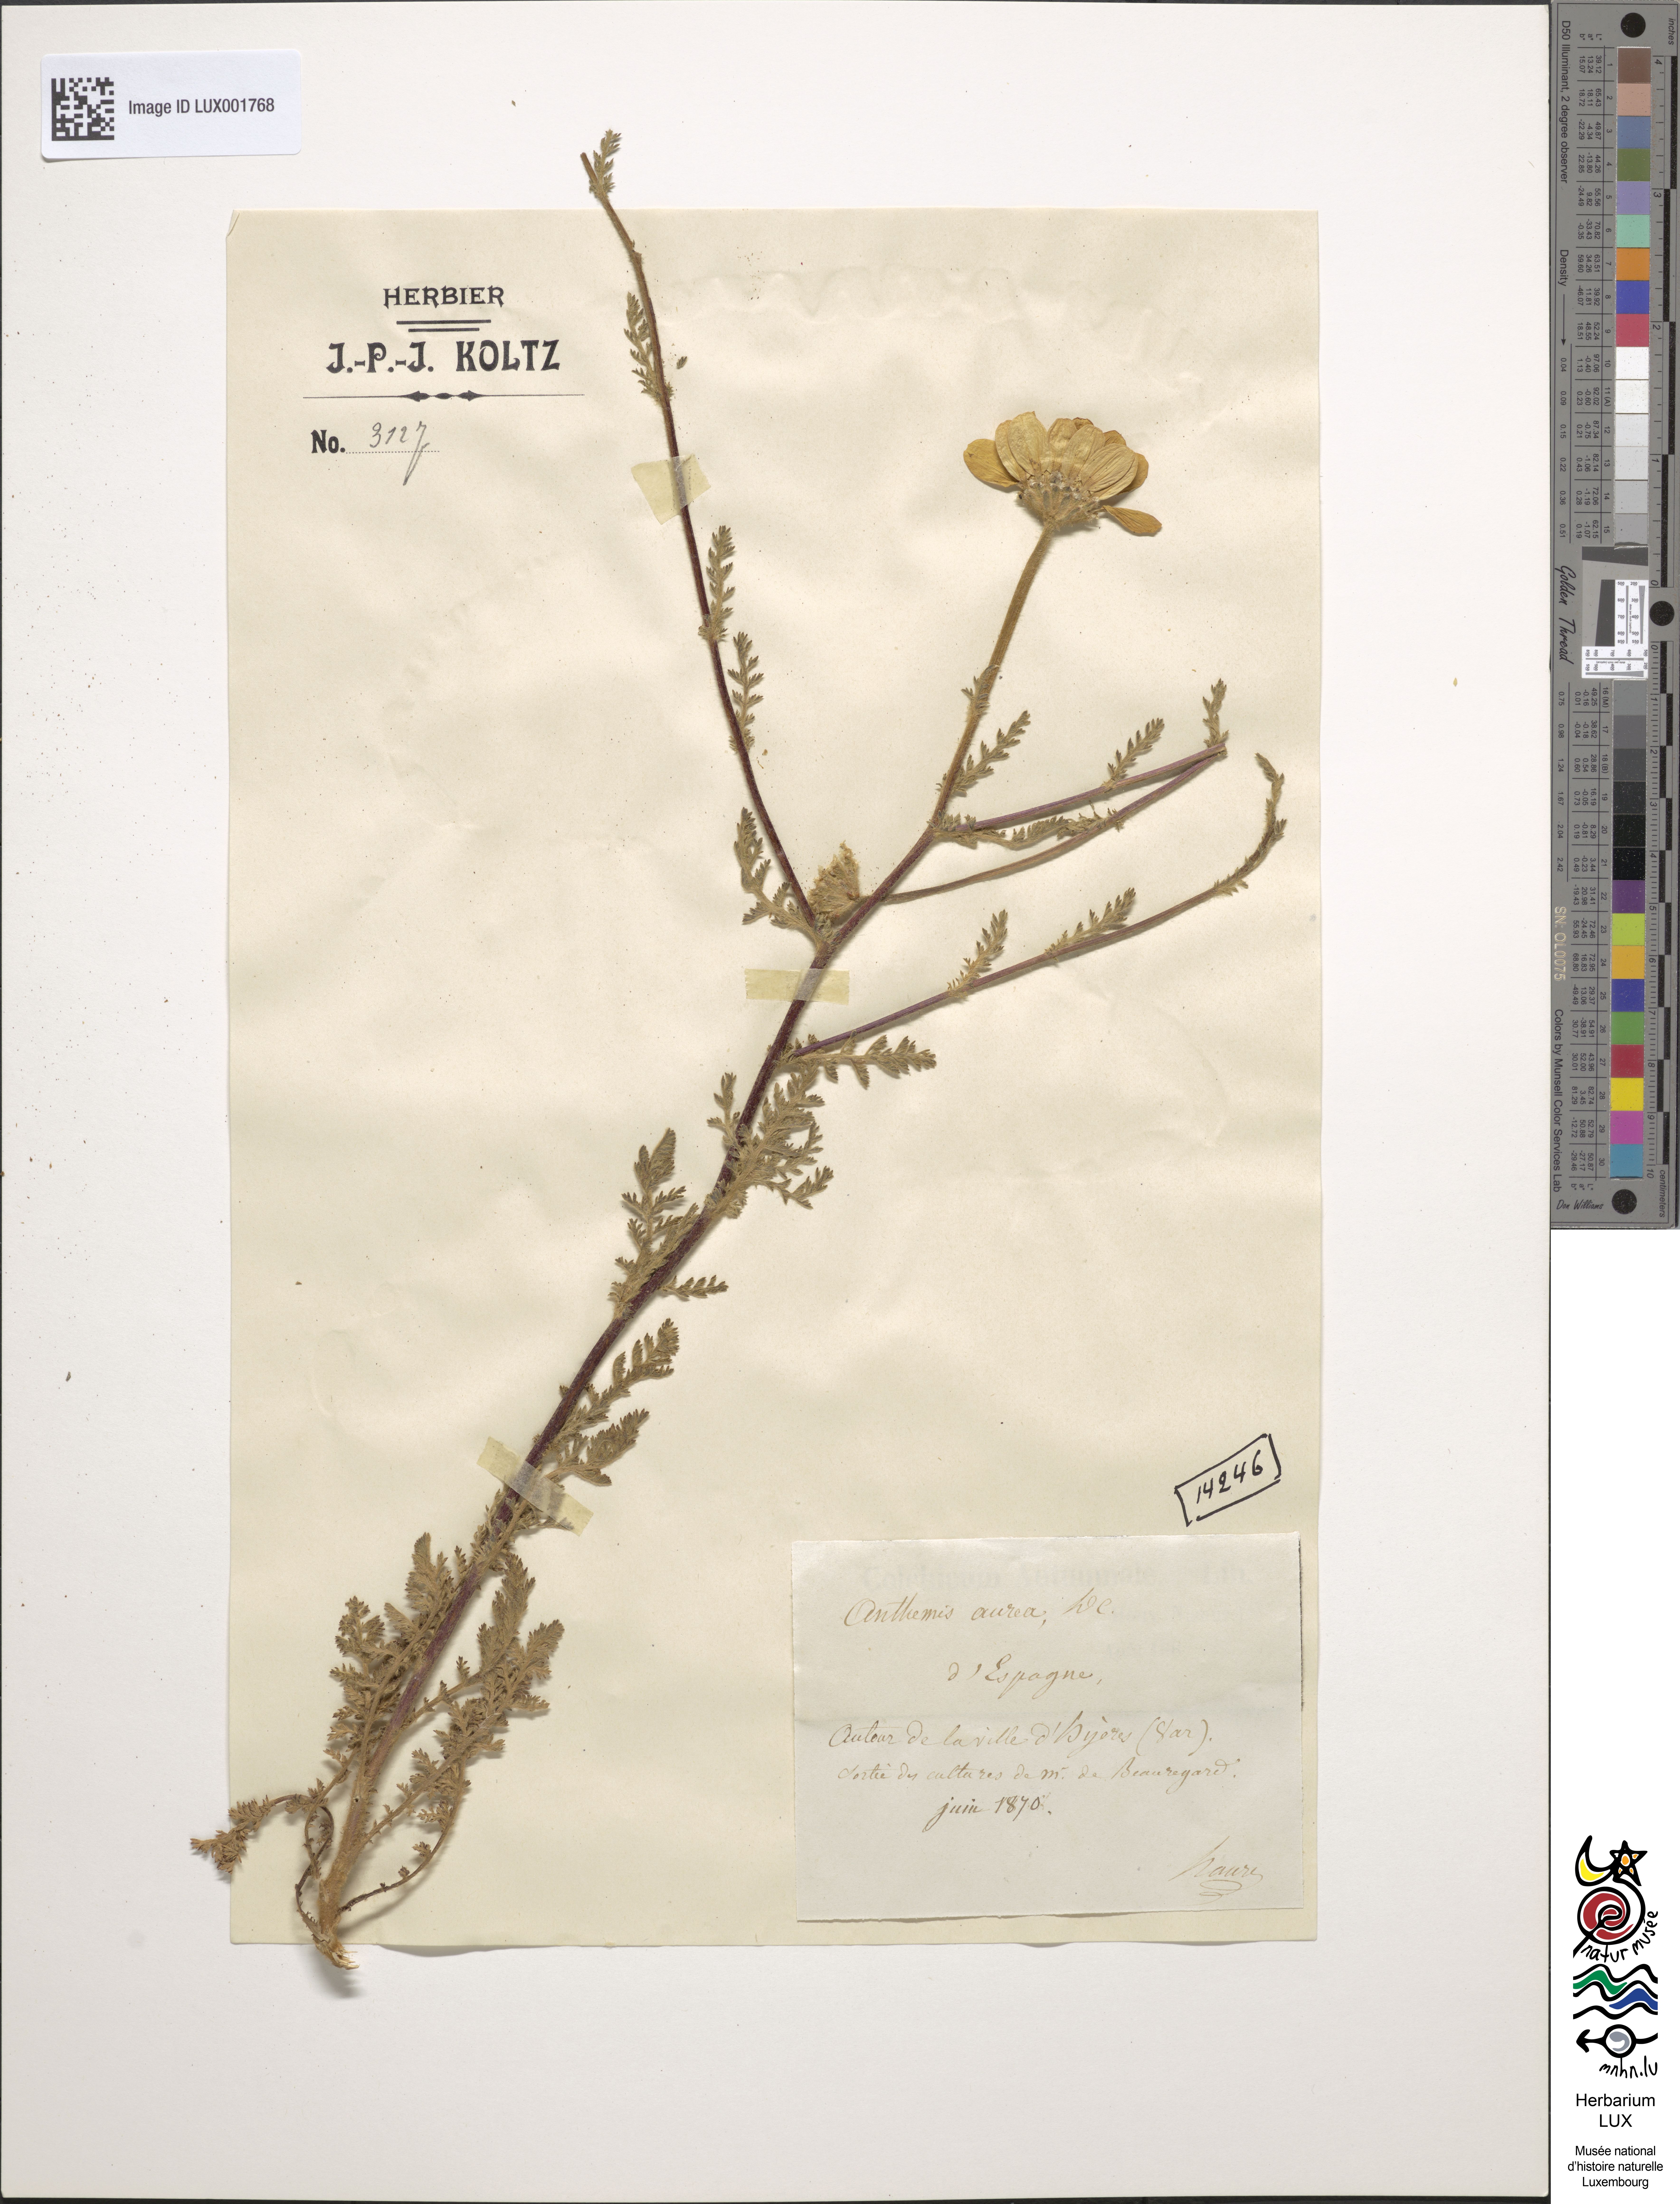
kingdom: Plantae
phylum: Tracheophyta
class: Magnoliopsida
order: Asterales
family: Asteraceae
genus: Chamaemelum
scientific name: Chamaemelum nobile
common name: Roman chamomile
